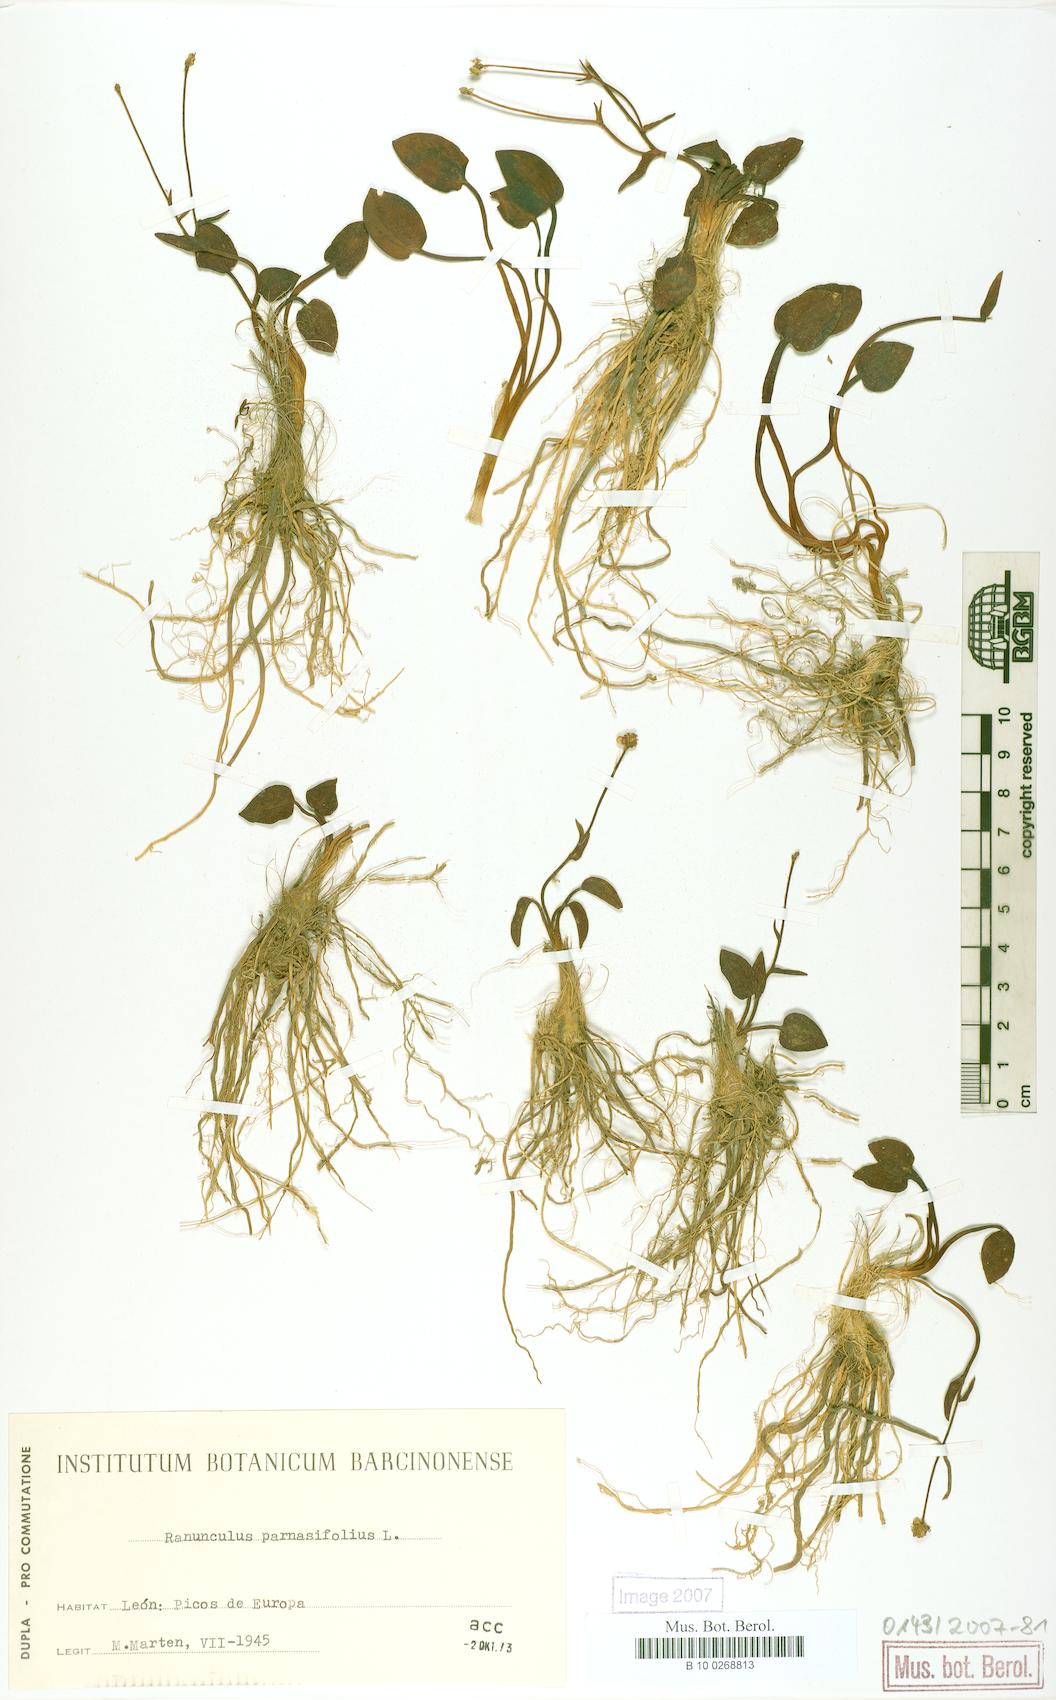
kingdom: Plantae
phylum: Tracheophyta
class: Magnoliopsida
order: Ranunculales
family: Ranunculaceae
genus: Ranunculus
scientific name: Ranunculus parnassiifolius
